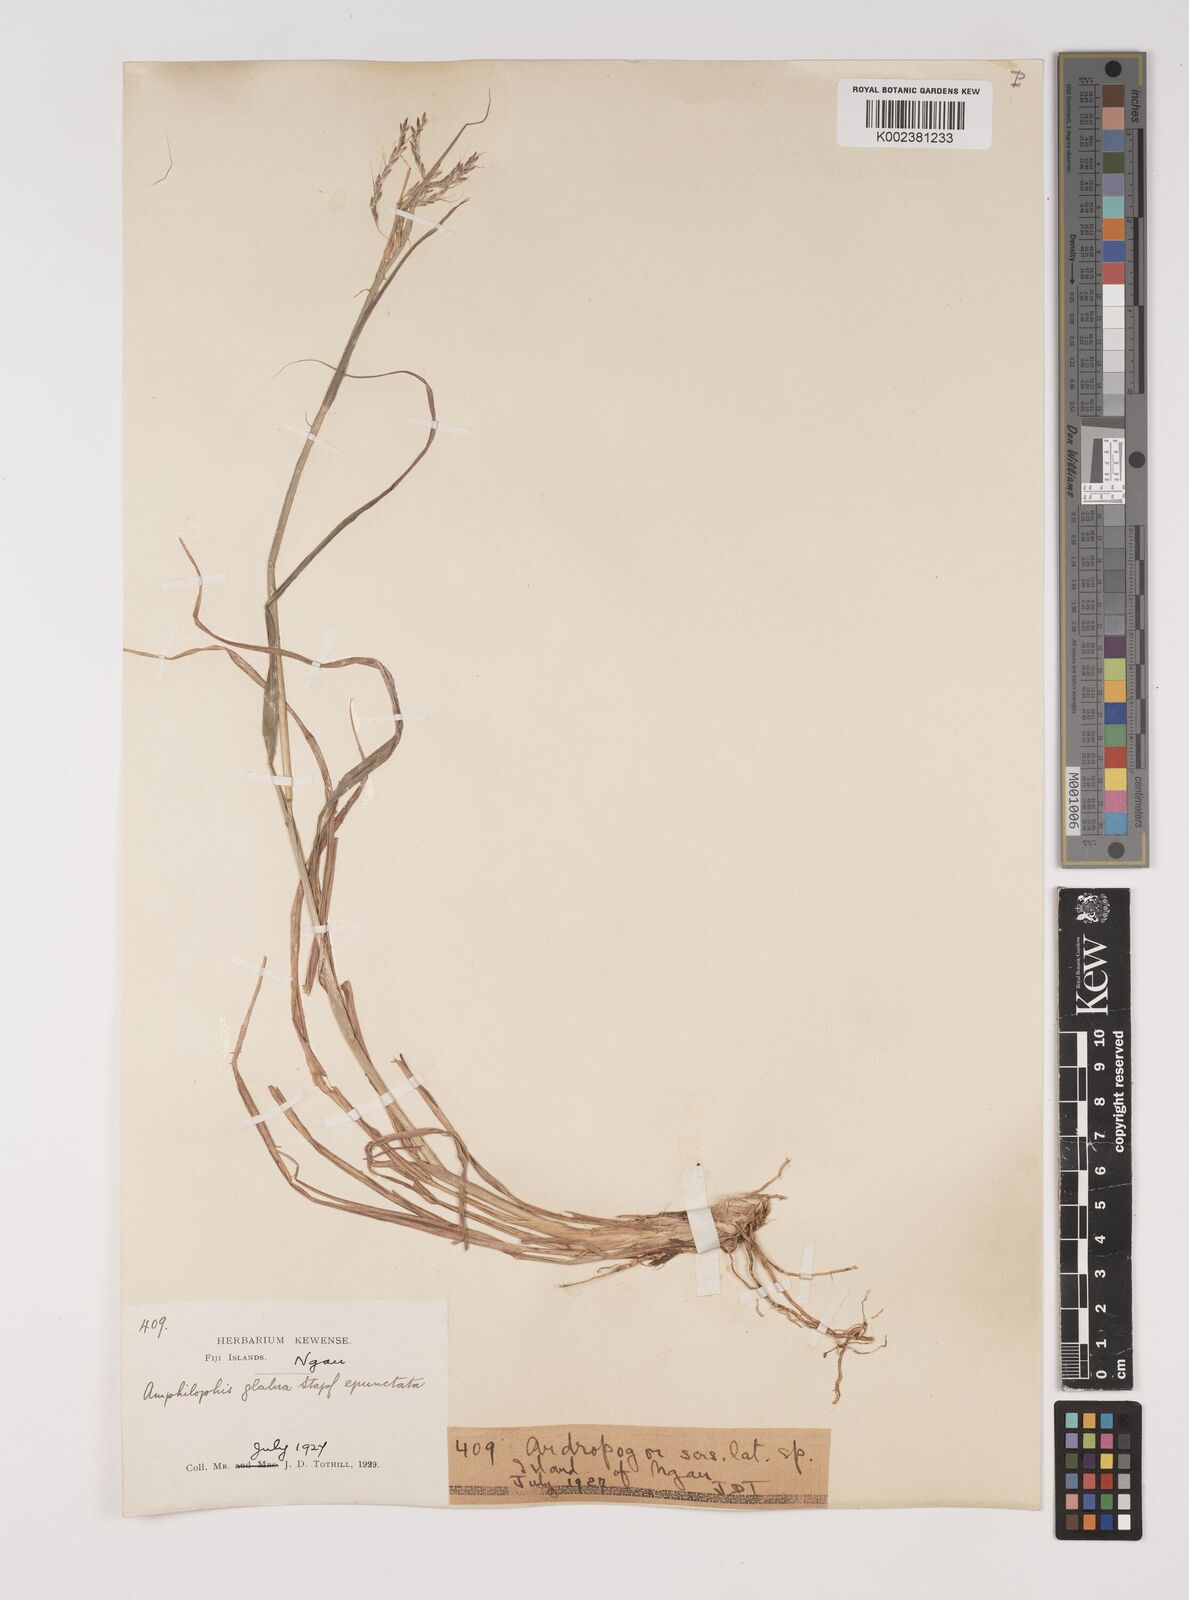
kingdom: Plantae
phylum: Tracheophyta
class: Liliopsida
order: Poales
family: Poaceae
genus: Bothriochloa
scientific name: Bothriochloa bladhii
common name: Caucasian bluestem
